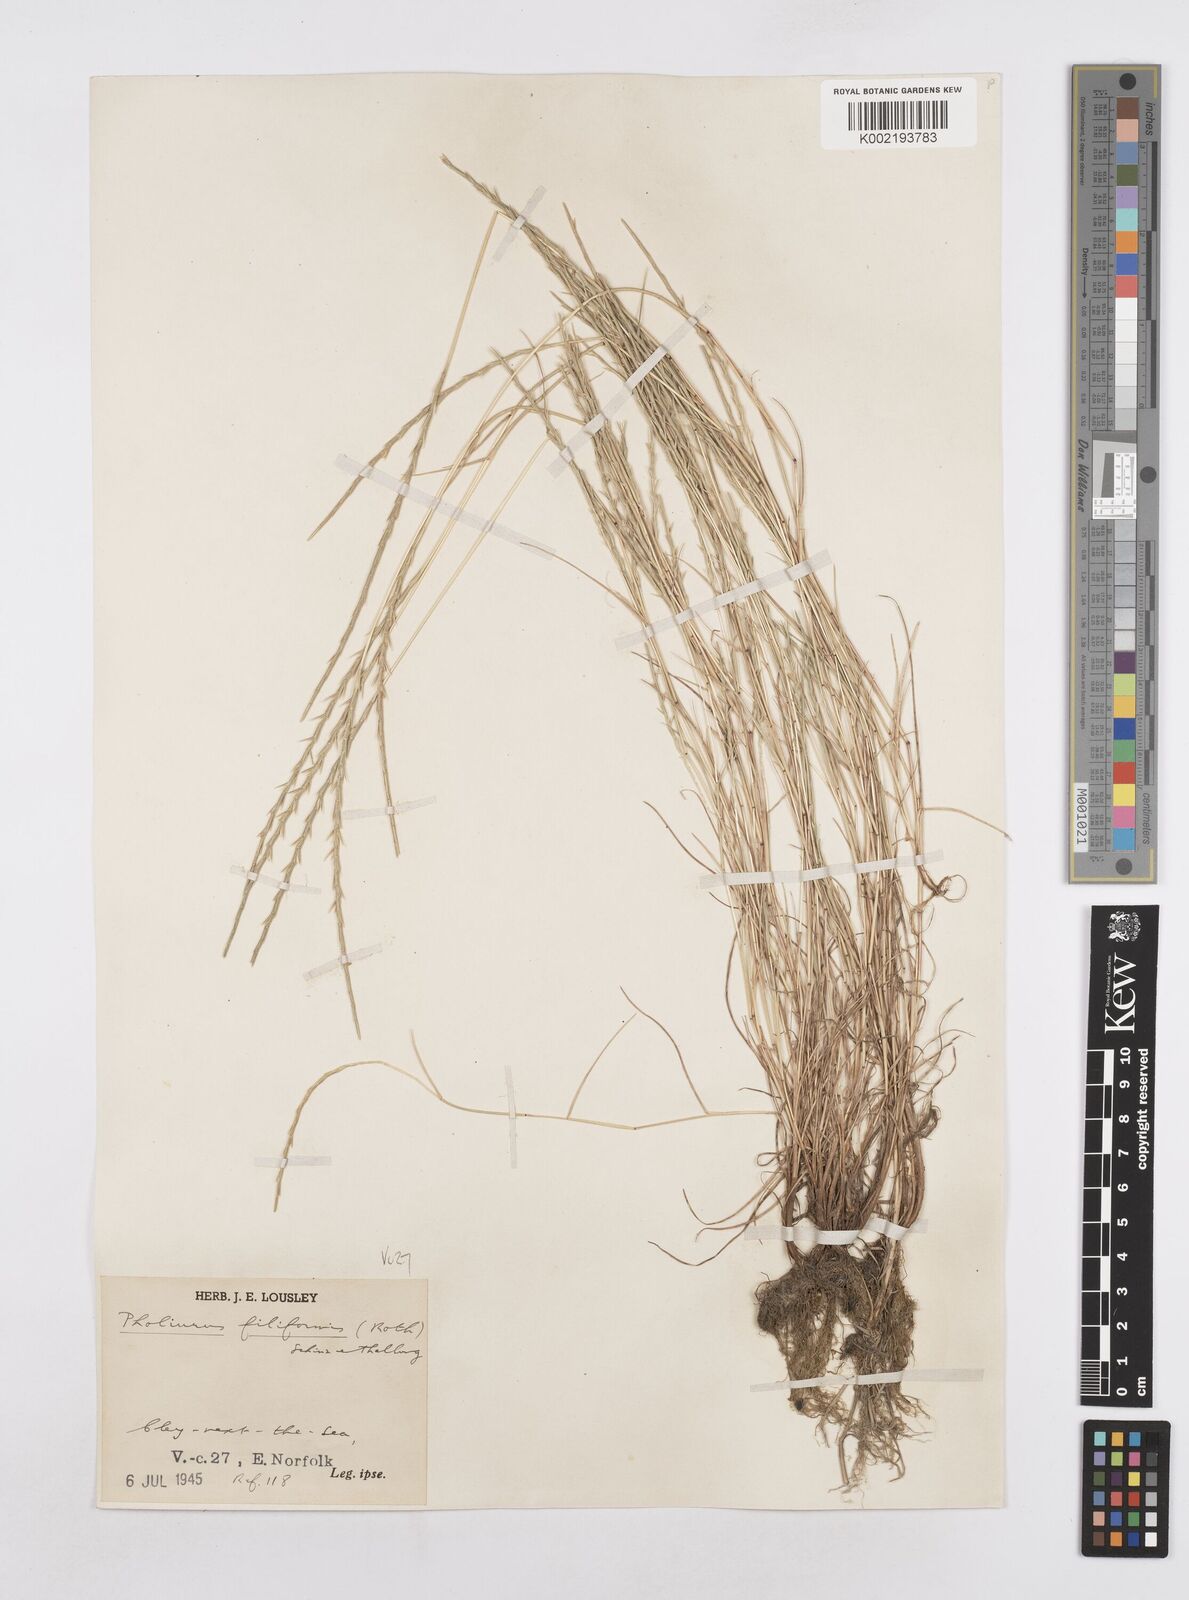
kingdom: Plantae
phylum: Tracheophyta
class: Liliopsida
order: Poales
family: Poaceae
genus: Parapholis
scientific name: Parapholis strigosa
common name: Hard-grass
